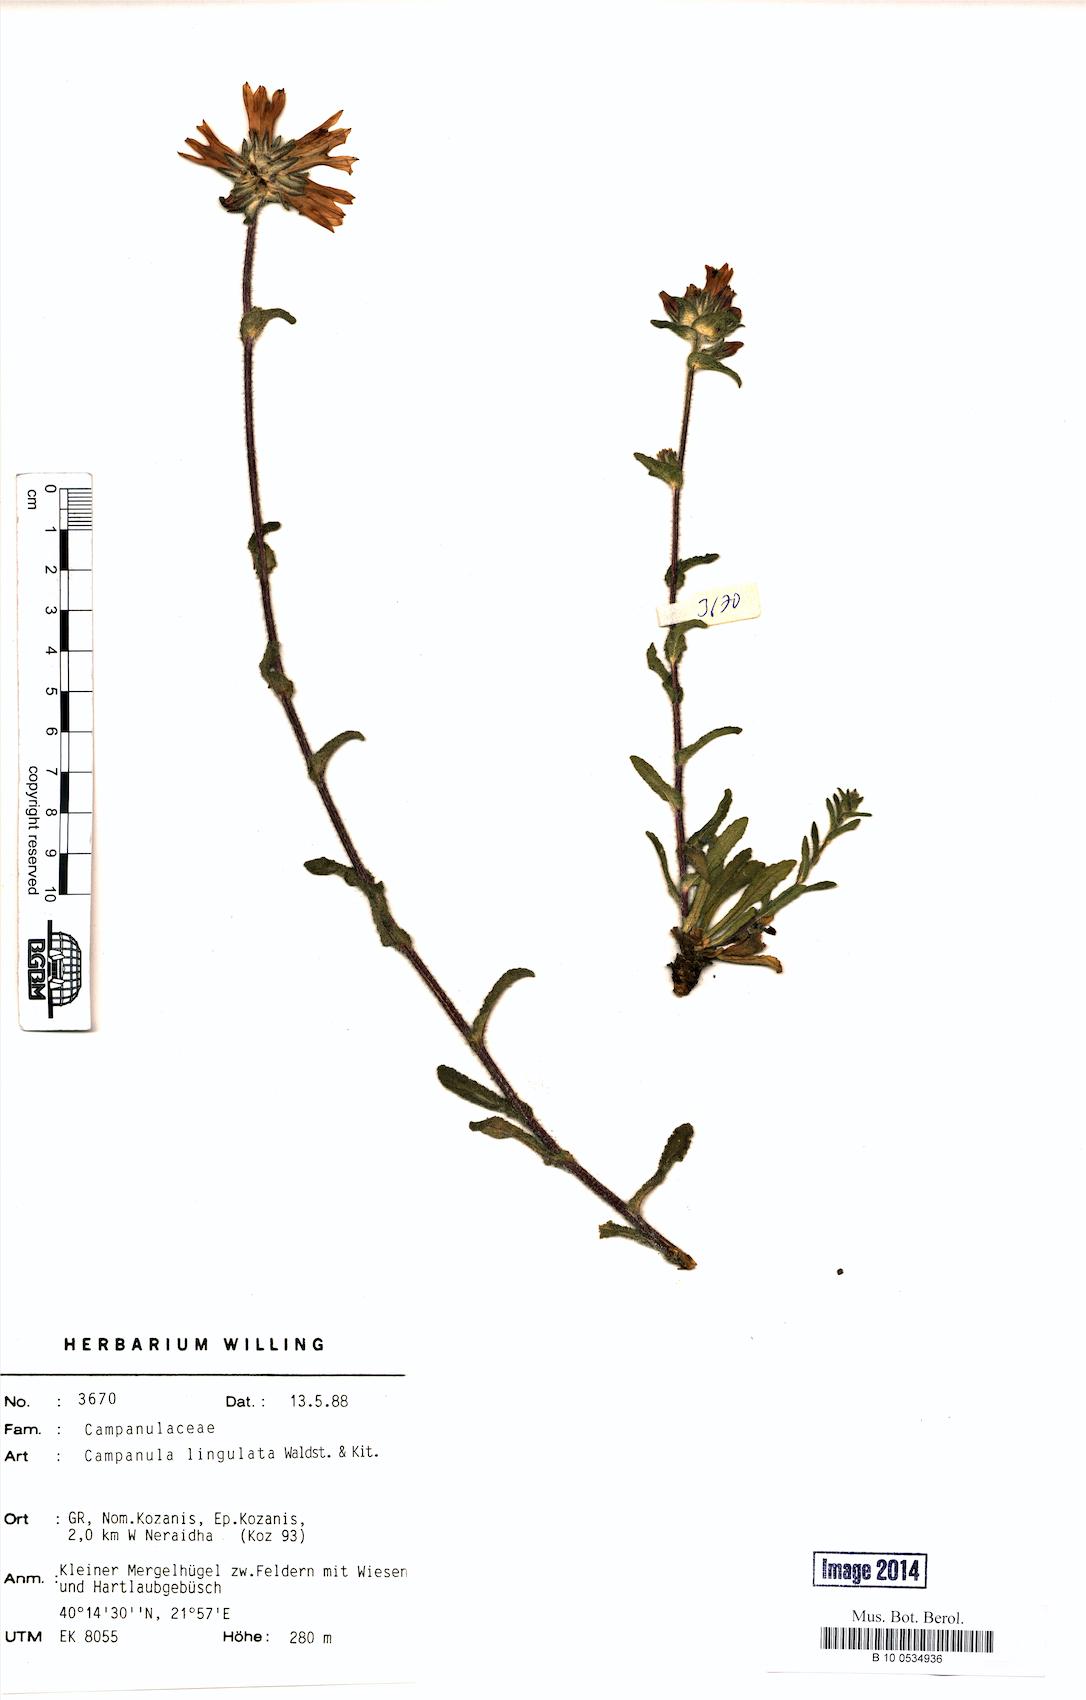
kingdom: Plantae
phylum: Tracheophyta
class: Magnoliopsida
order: Asterales
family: Campanulaceae
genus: Campanula
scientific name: Campanula lingulata
